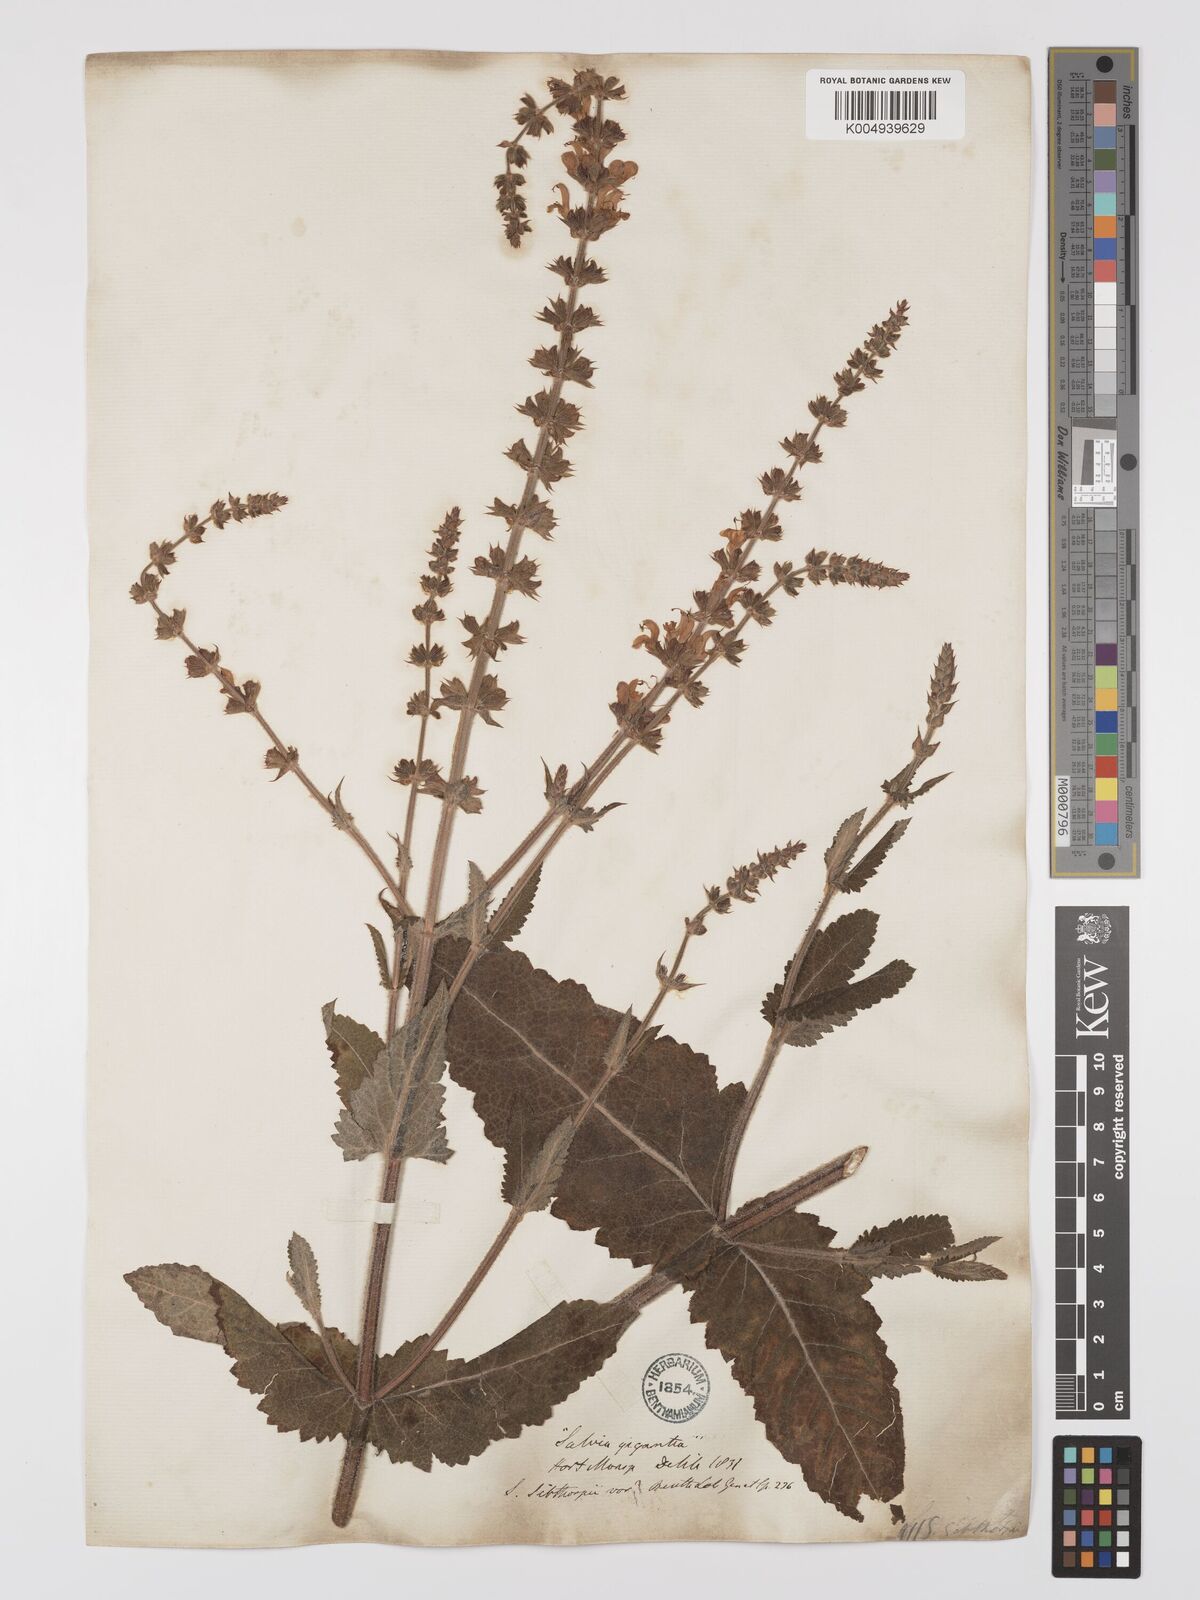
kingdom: Plantae
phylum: Tracheophyta
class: Magnoliopsida
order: Lamiales
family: Lamiaceae
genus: Salvia
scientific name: Salvia
